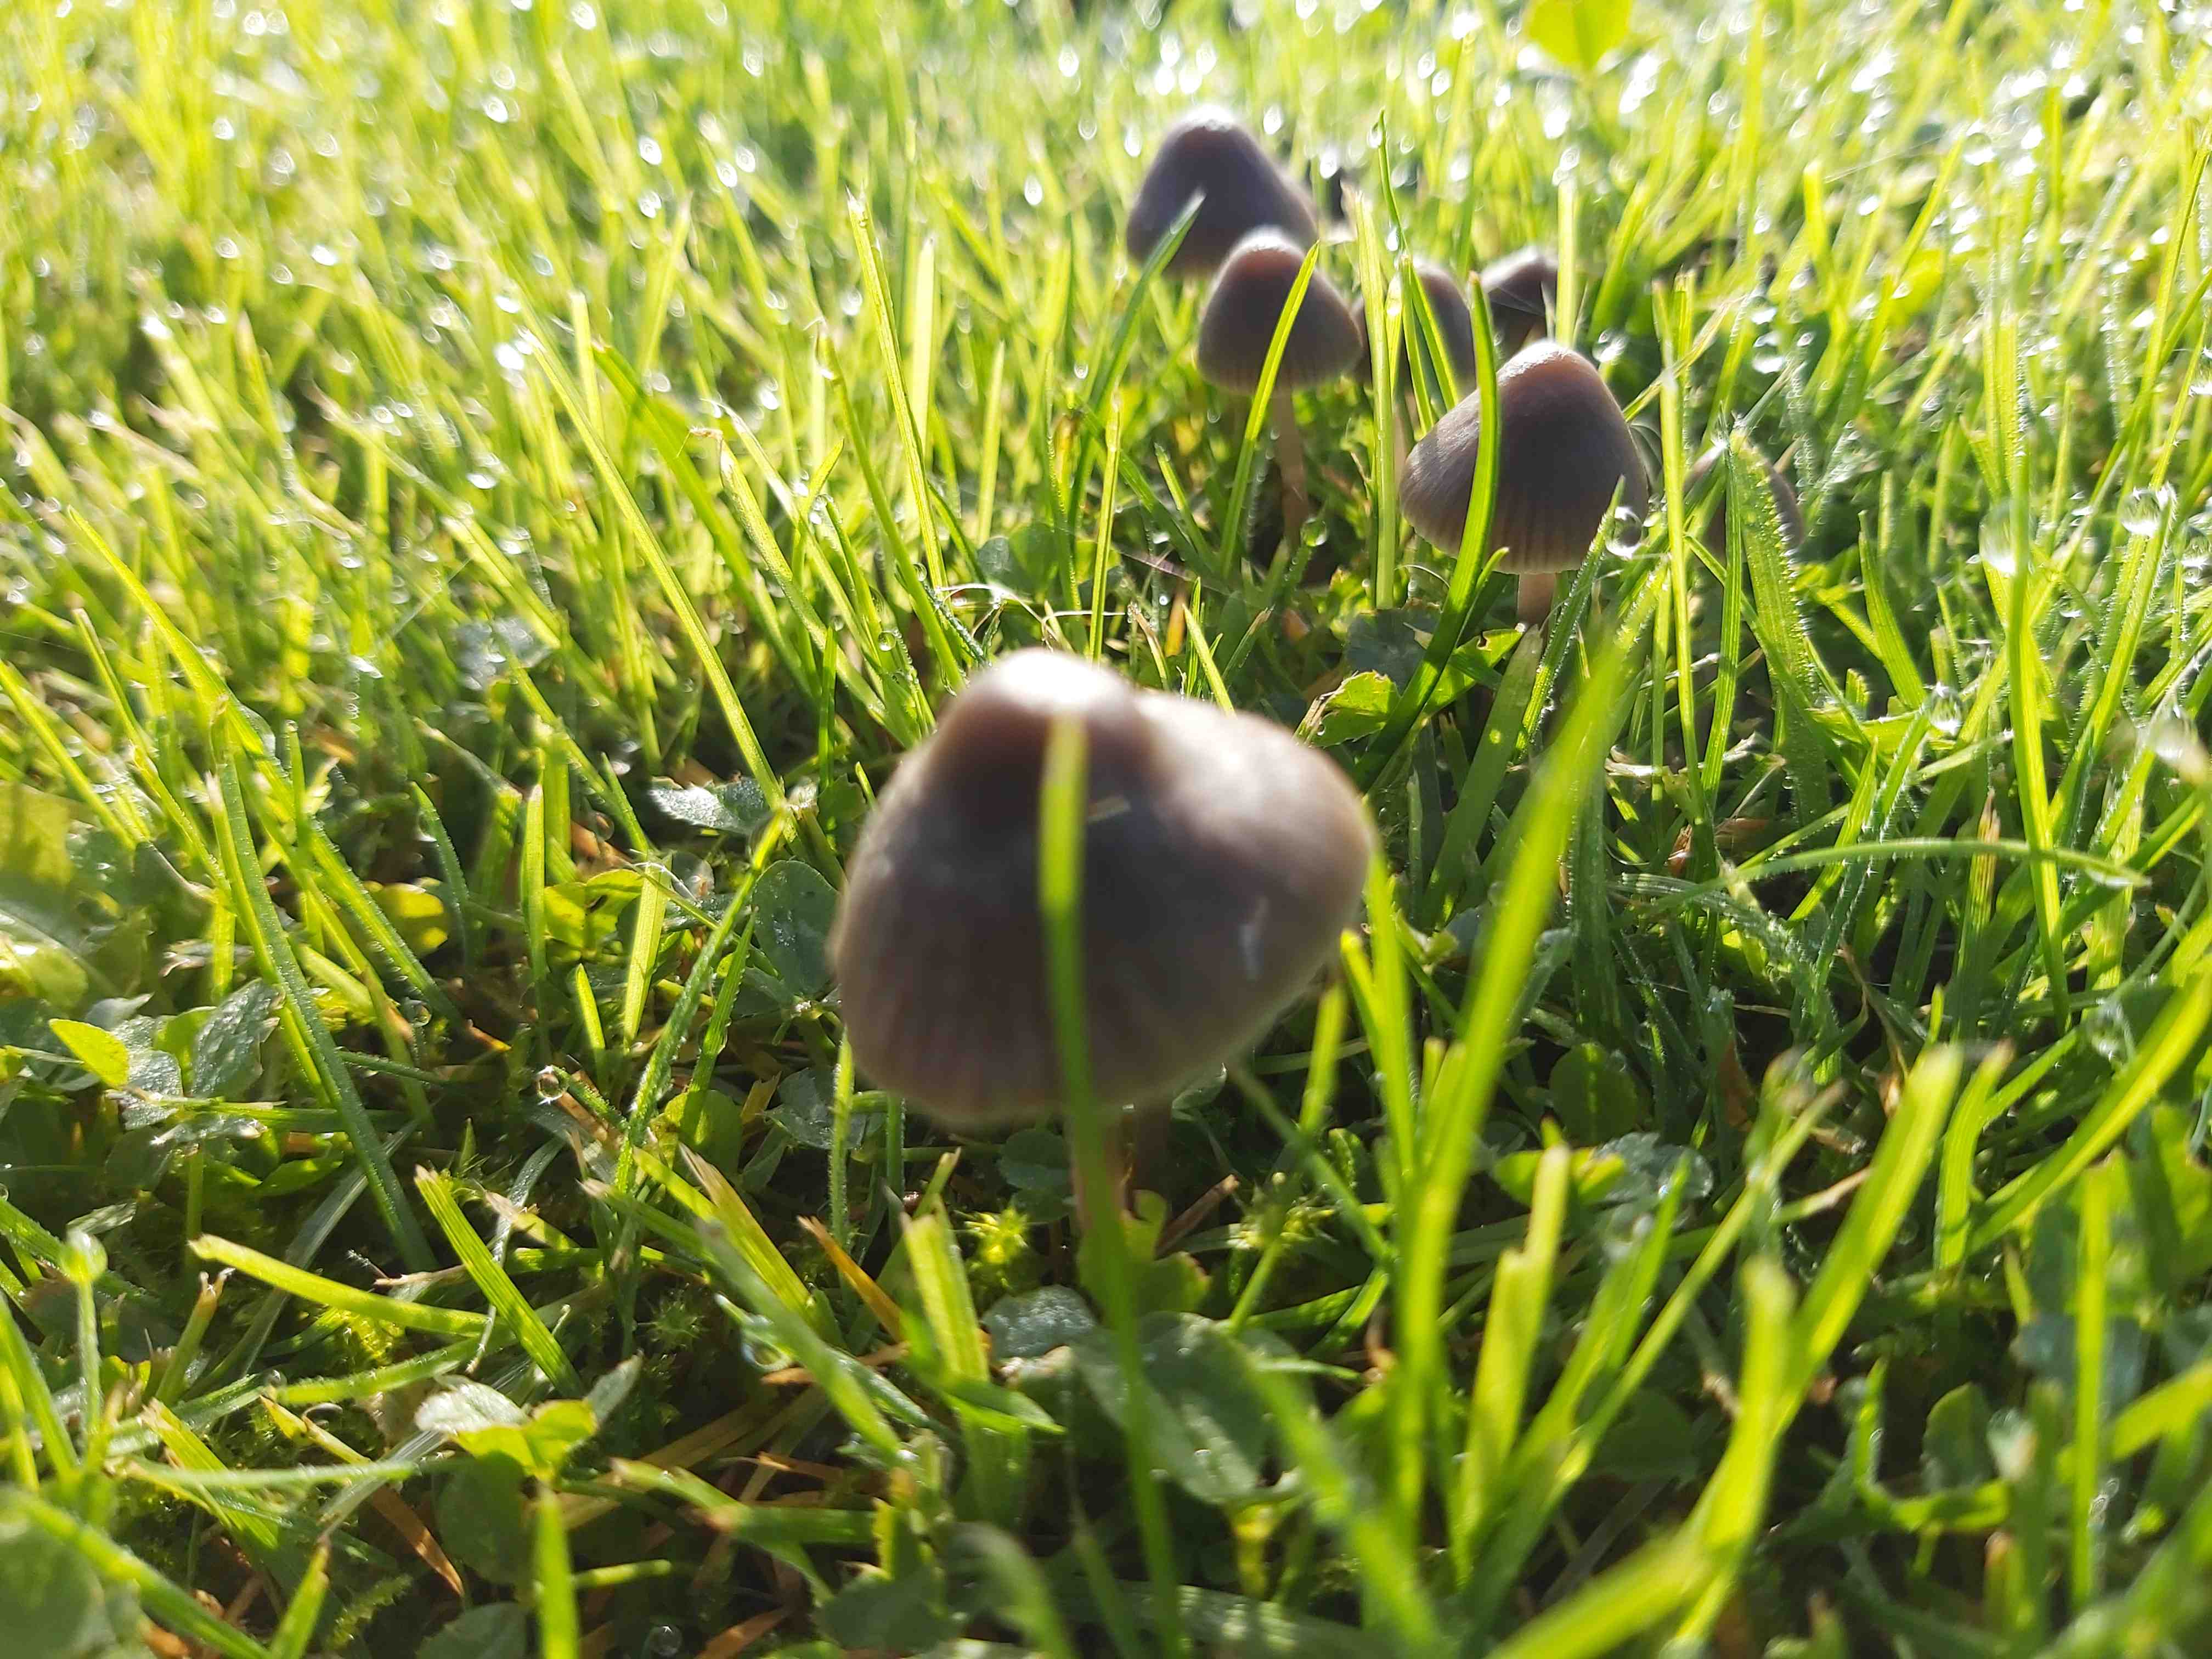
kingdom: Fungi
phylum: Basidiomycota
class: Agaricomycetes
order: Agaricales
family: Mycenaceae
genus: Mycena
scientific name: Mycena
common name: huesvamp
